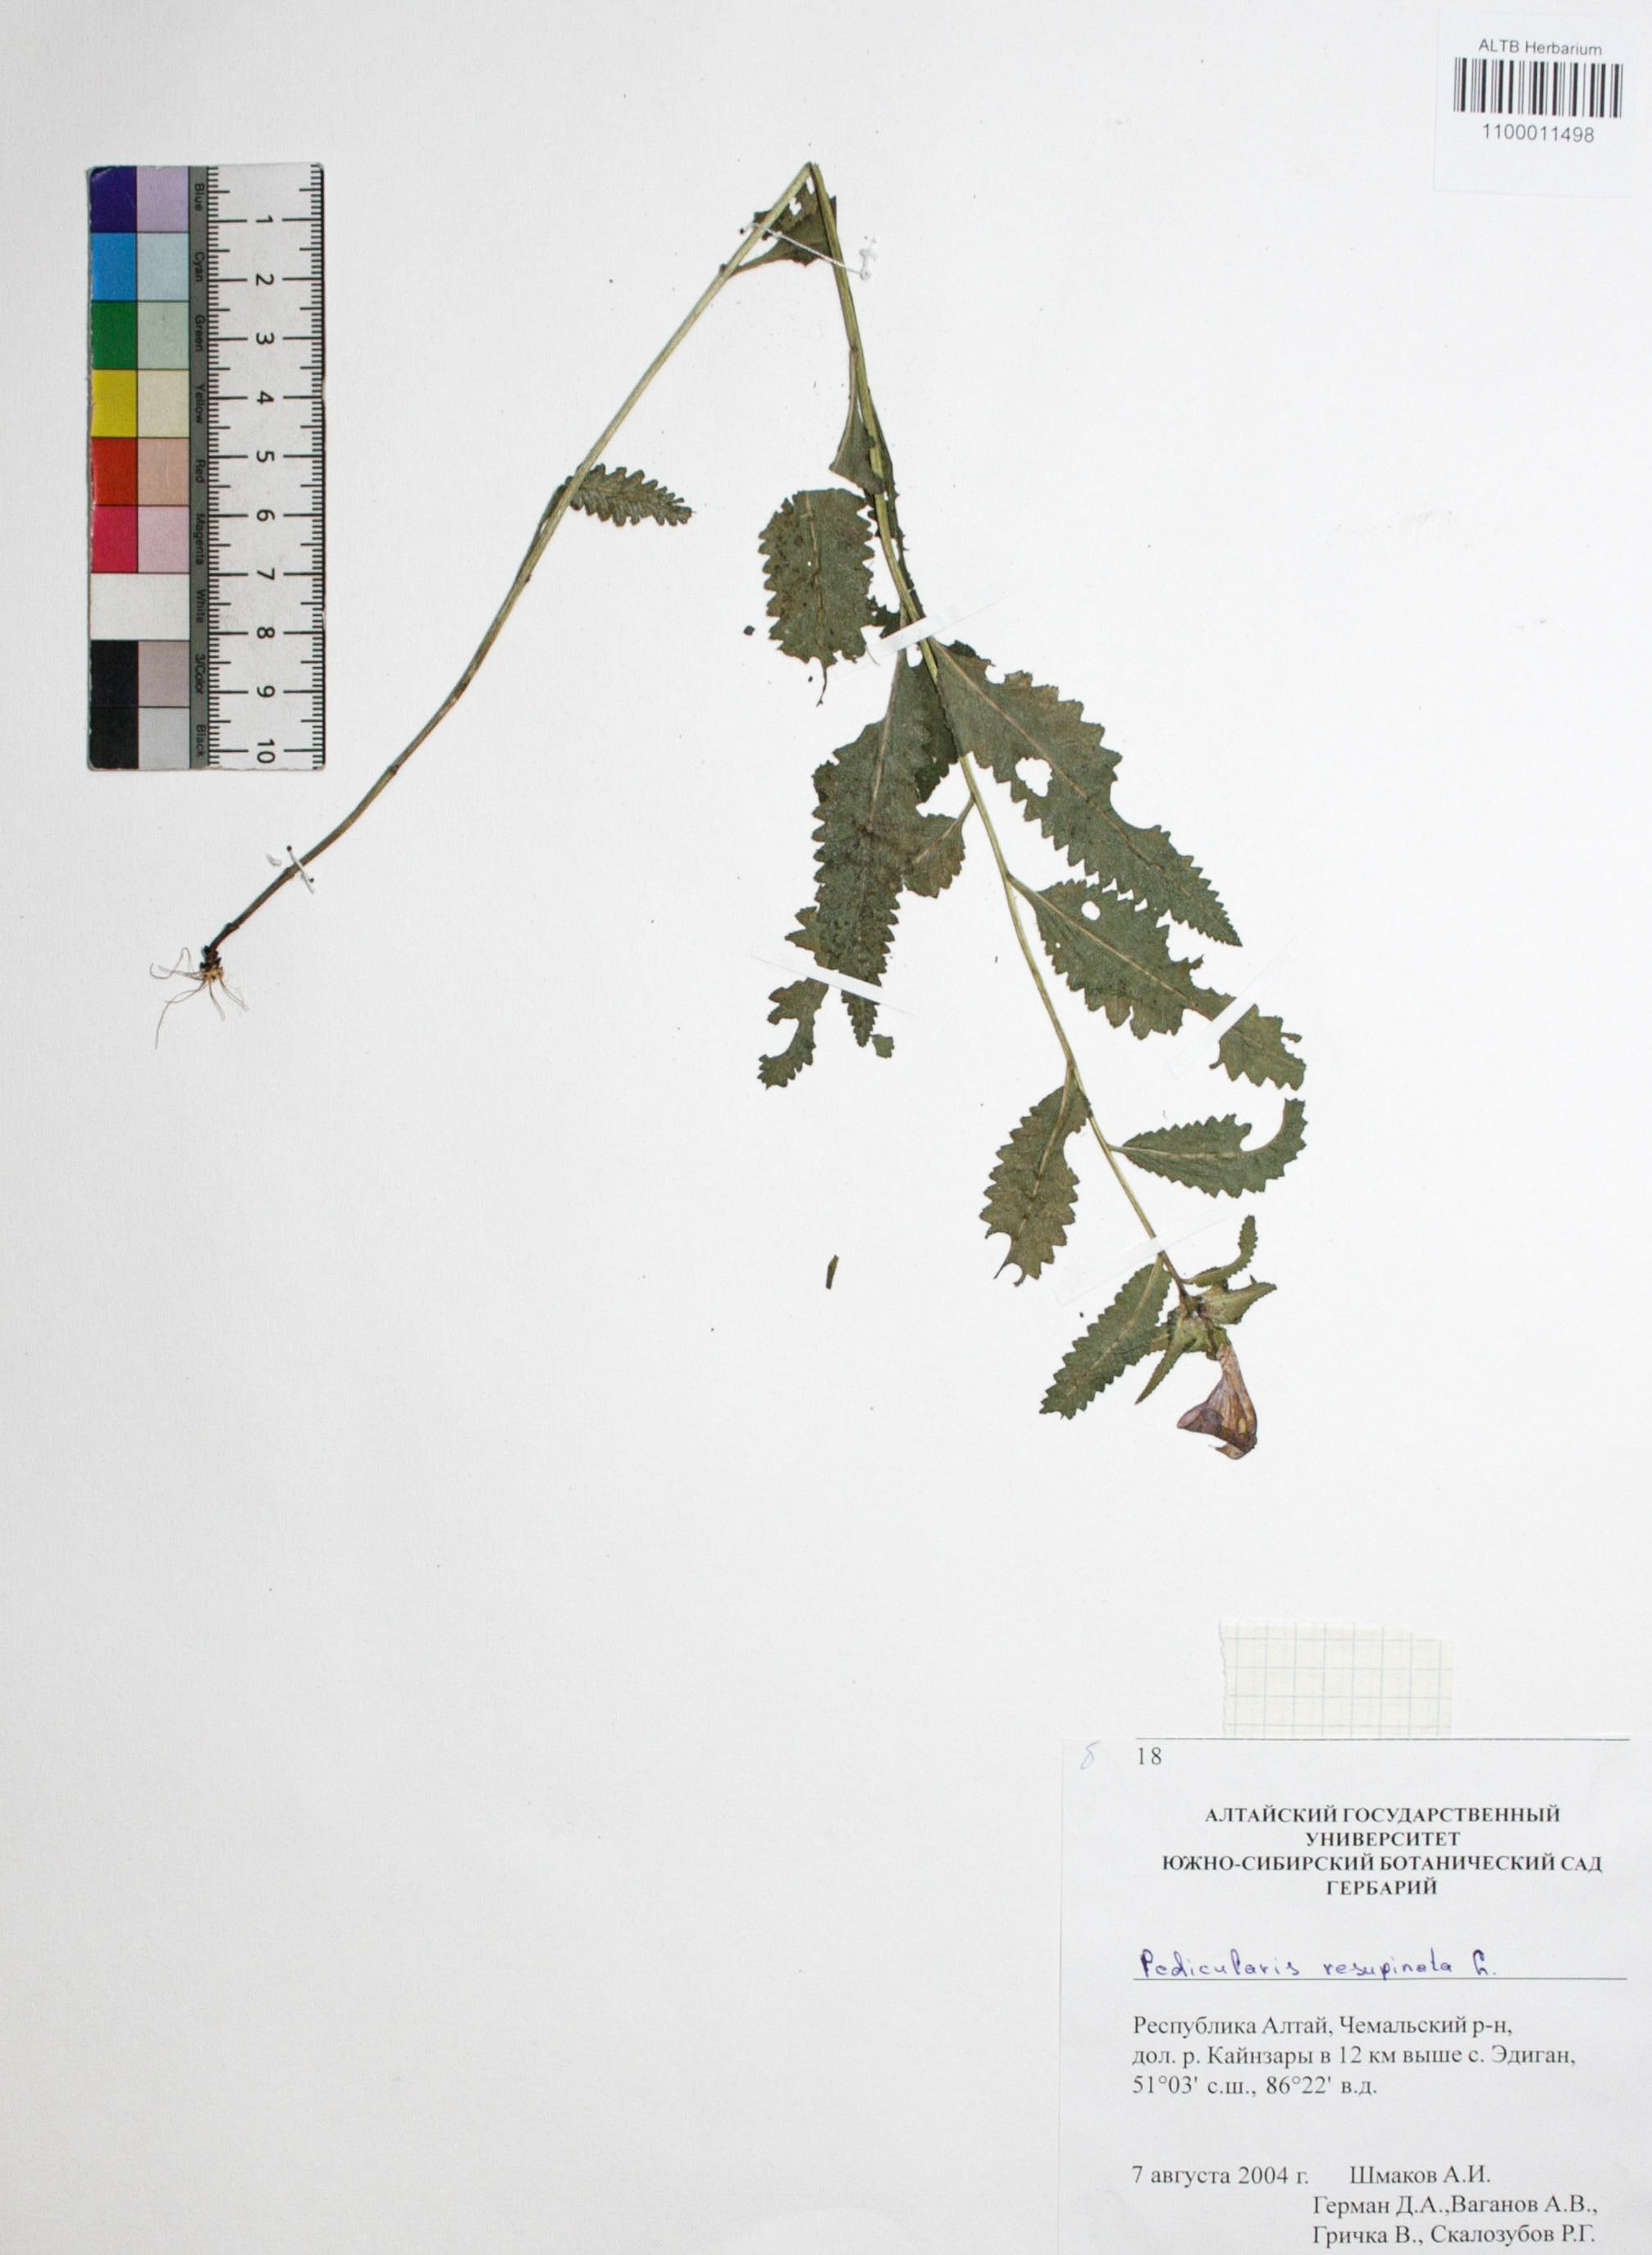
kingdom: Plantae
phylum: Tracheophyta
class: Magnoliopsida
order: Lamiales
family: Orobanchaceae
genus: Pedicularis
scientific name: Pedicularis resupinata
